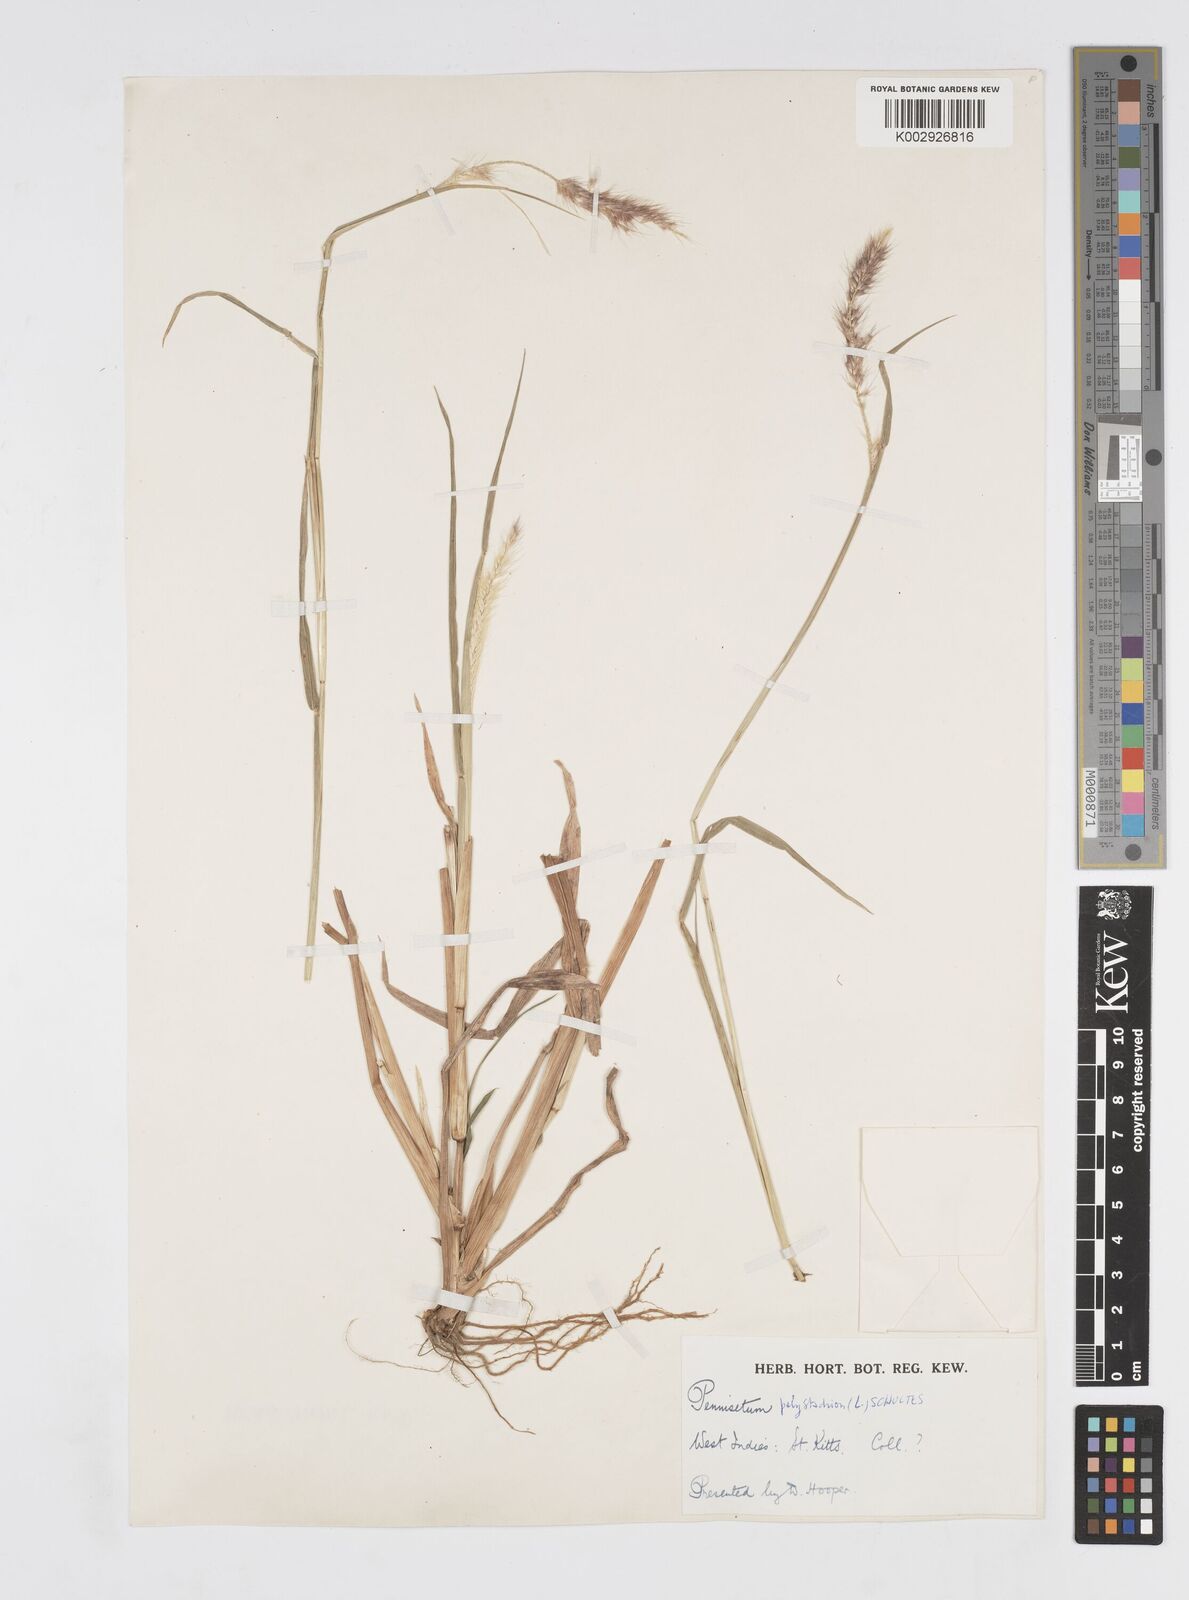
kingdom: Plantae
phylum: Tracheophyta
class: Liliopsida
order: Poales
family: Poaceae
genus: Cenchrus
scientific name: Cenchrus setosus
